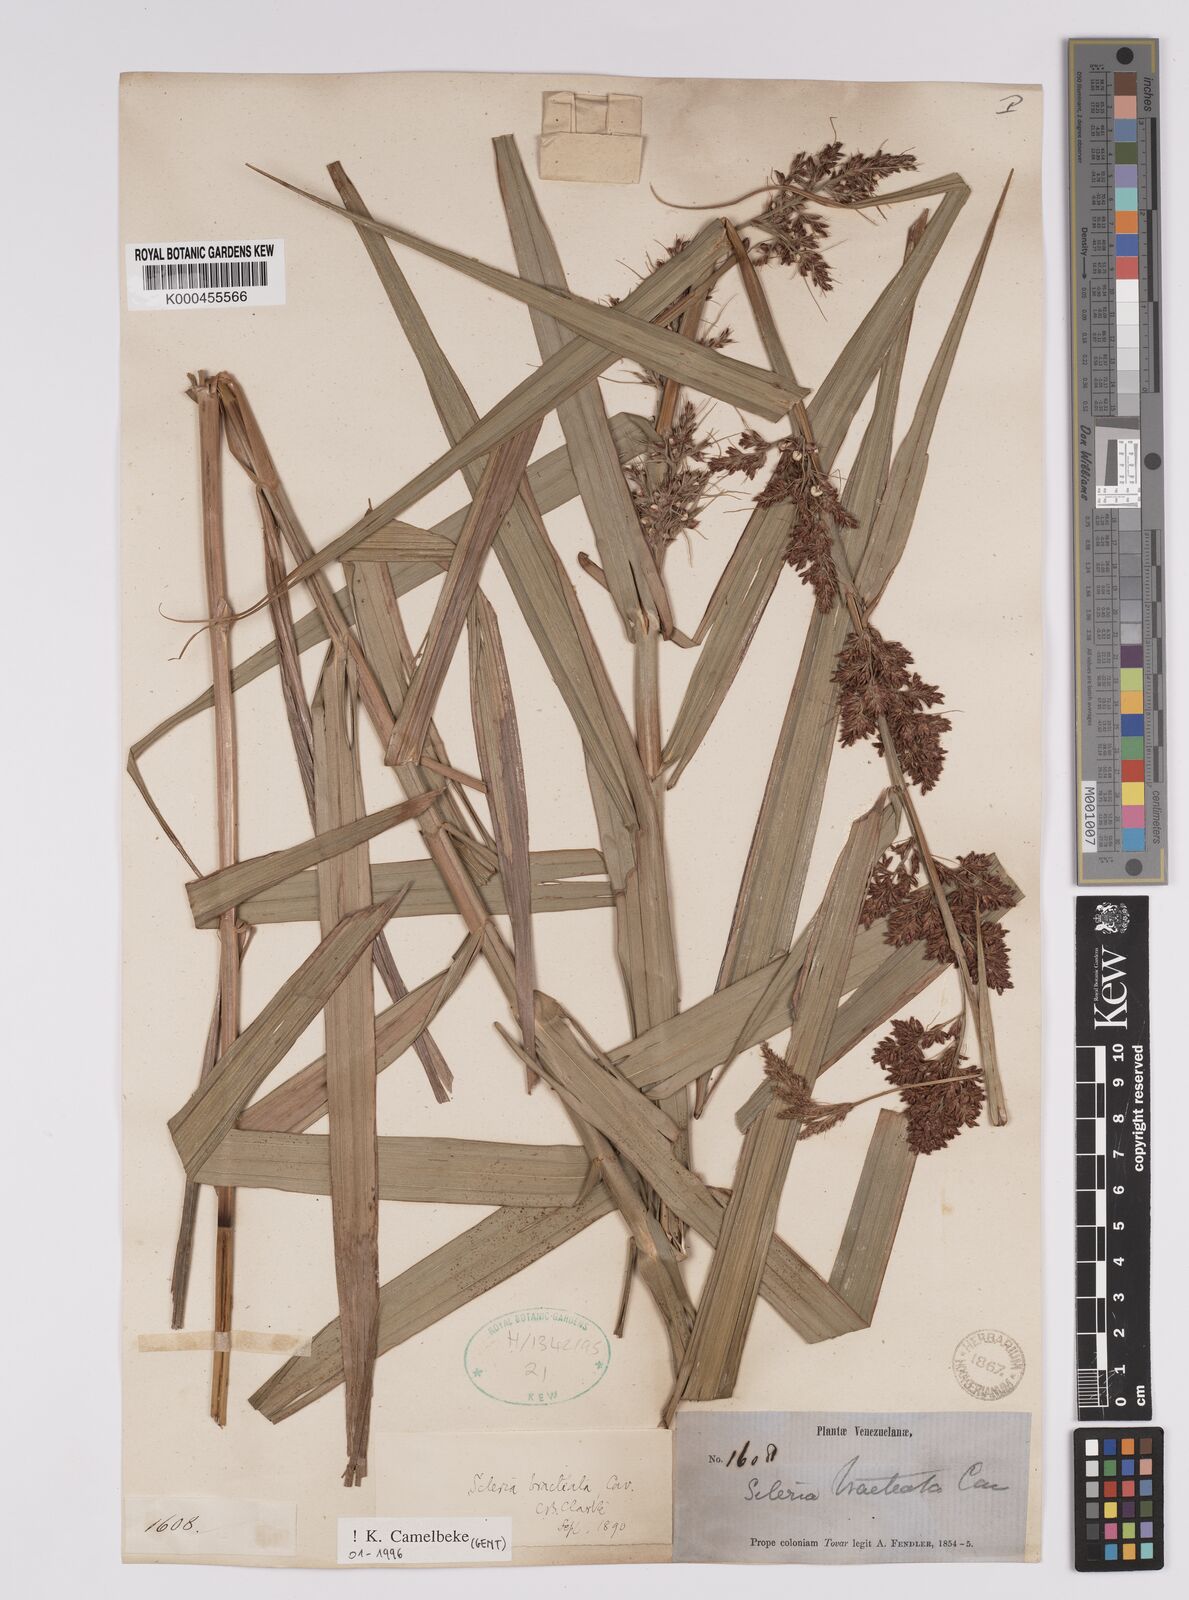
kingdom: Plantae
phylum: Tracheophyta
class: Liliopsida
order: Poales
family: Cyperaceae
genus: Scleria
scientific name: Scleria bracteata
